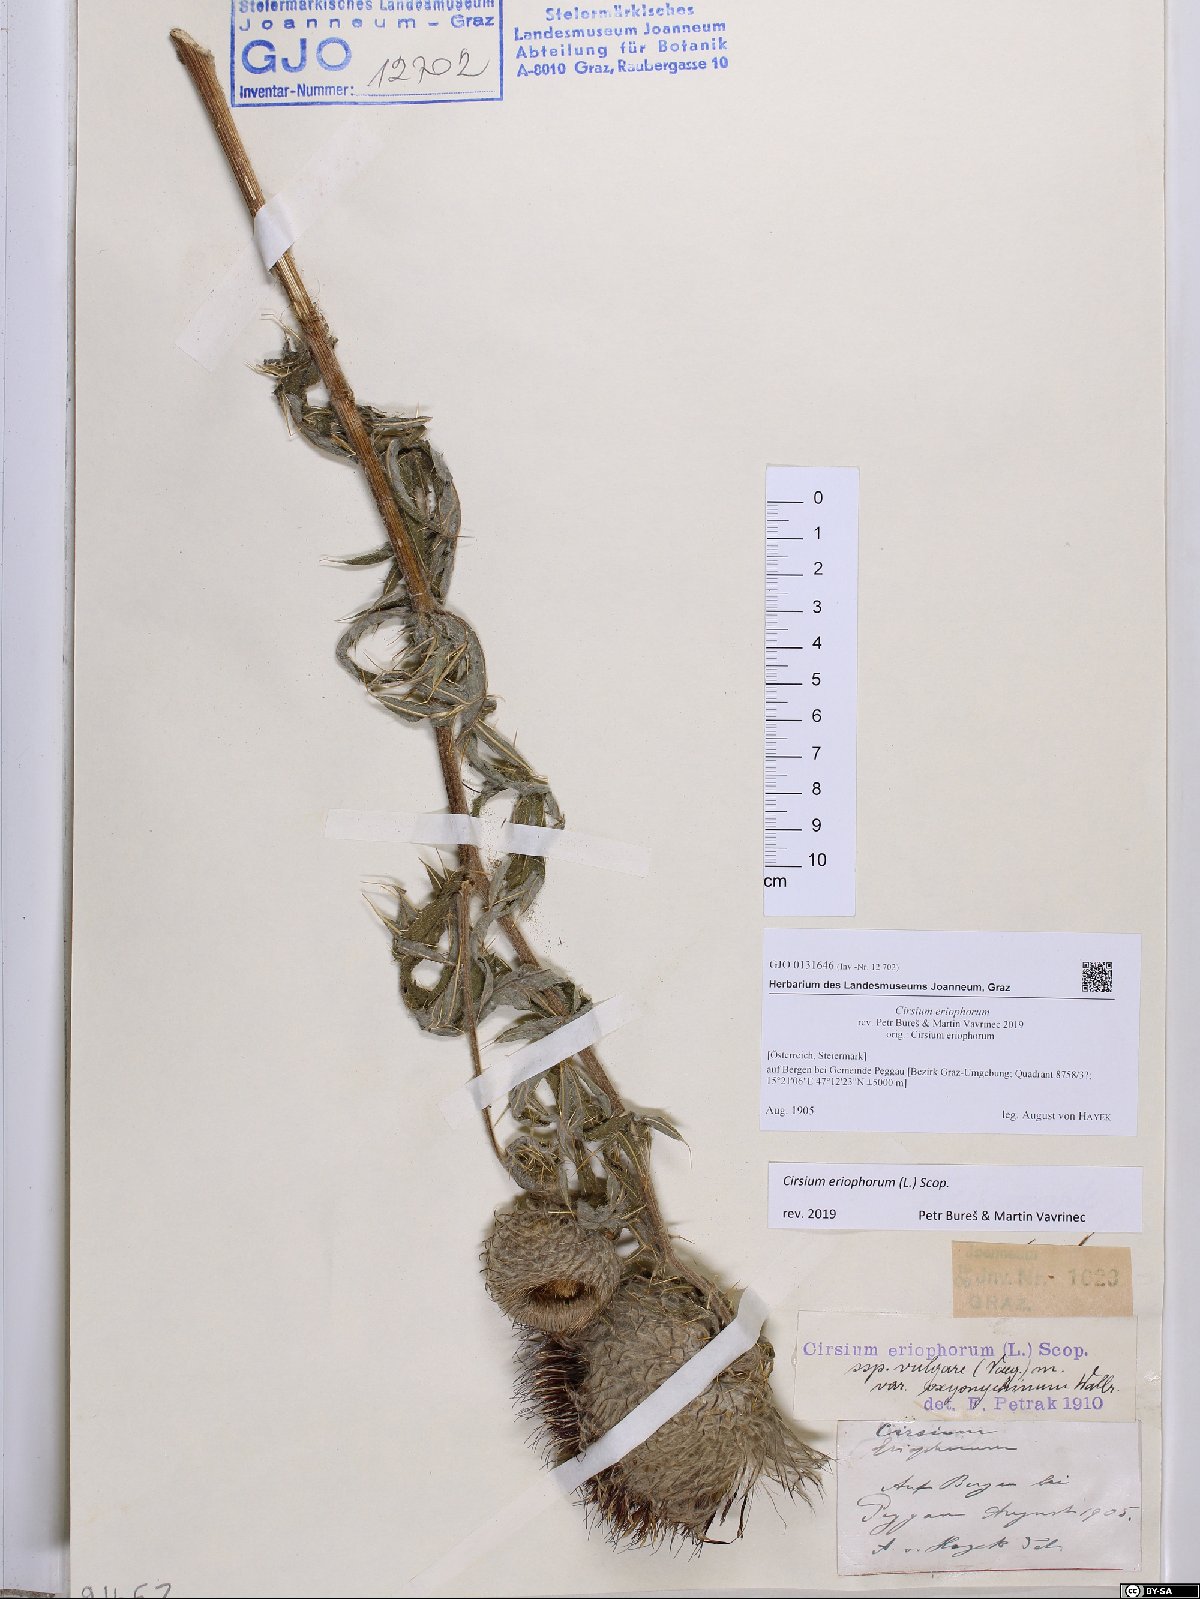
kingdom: Plantae
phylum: Tracheophyta
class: Magnoliopsida
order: Asterales
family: Asteraceae
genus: Lophiolepis
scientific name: Lophiolepis eriophora
